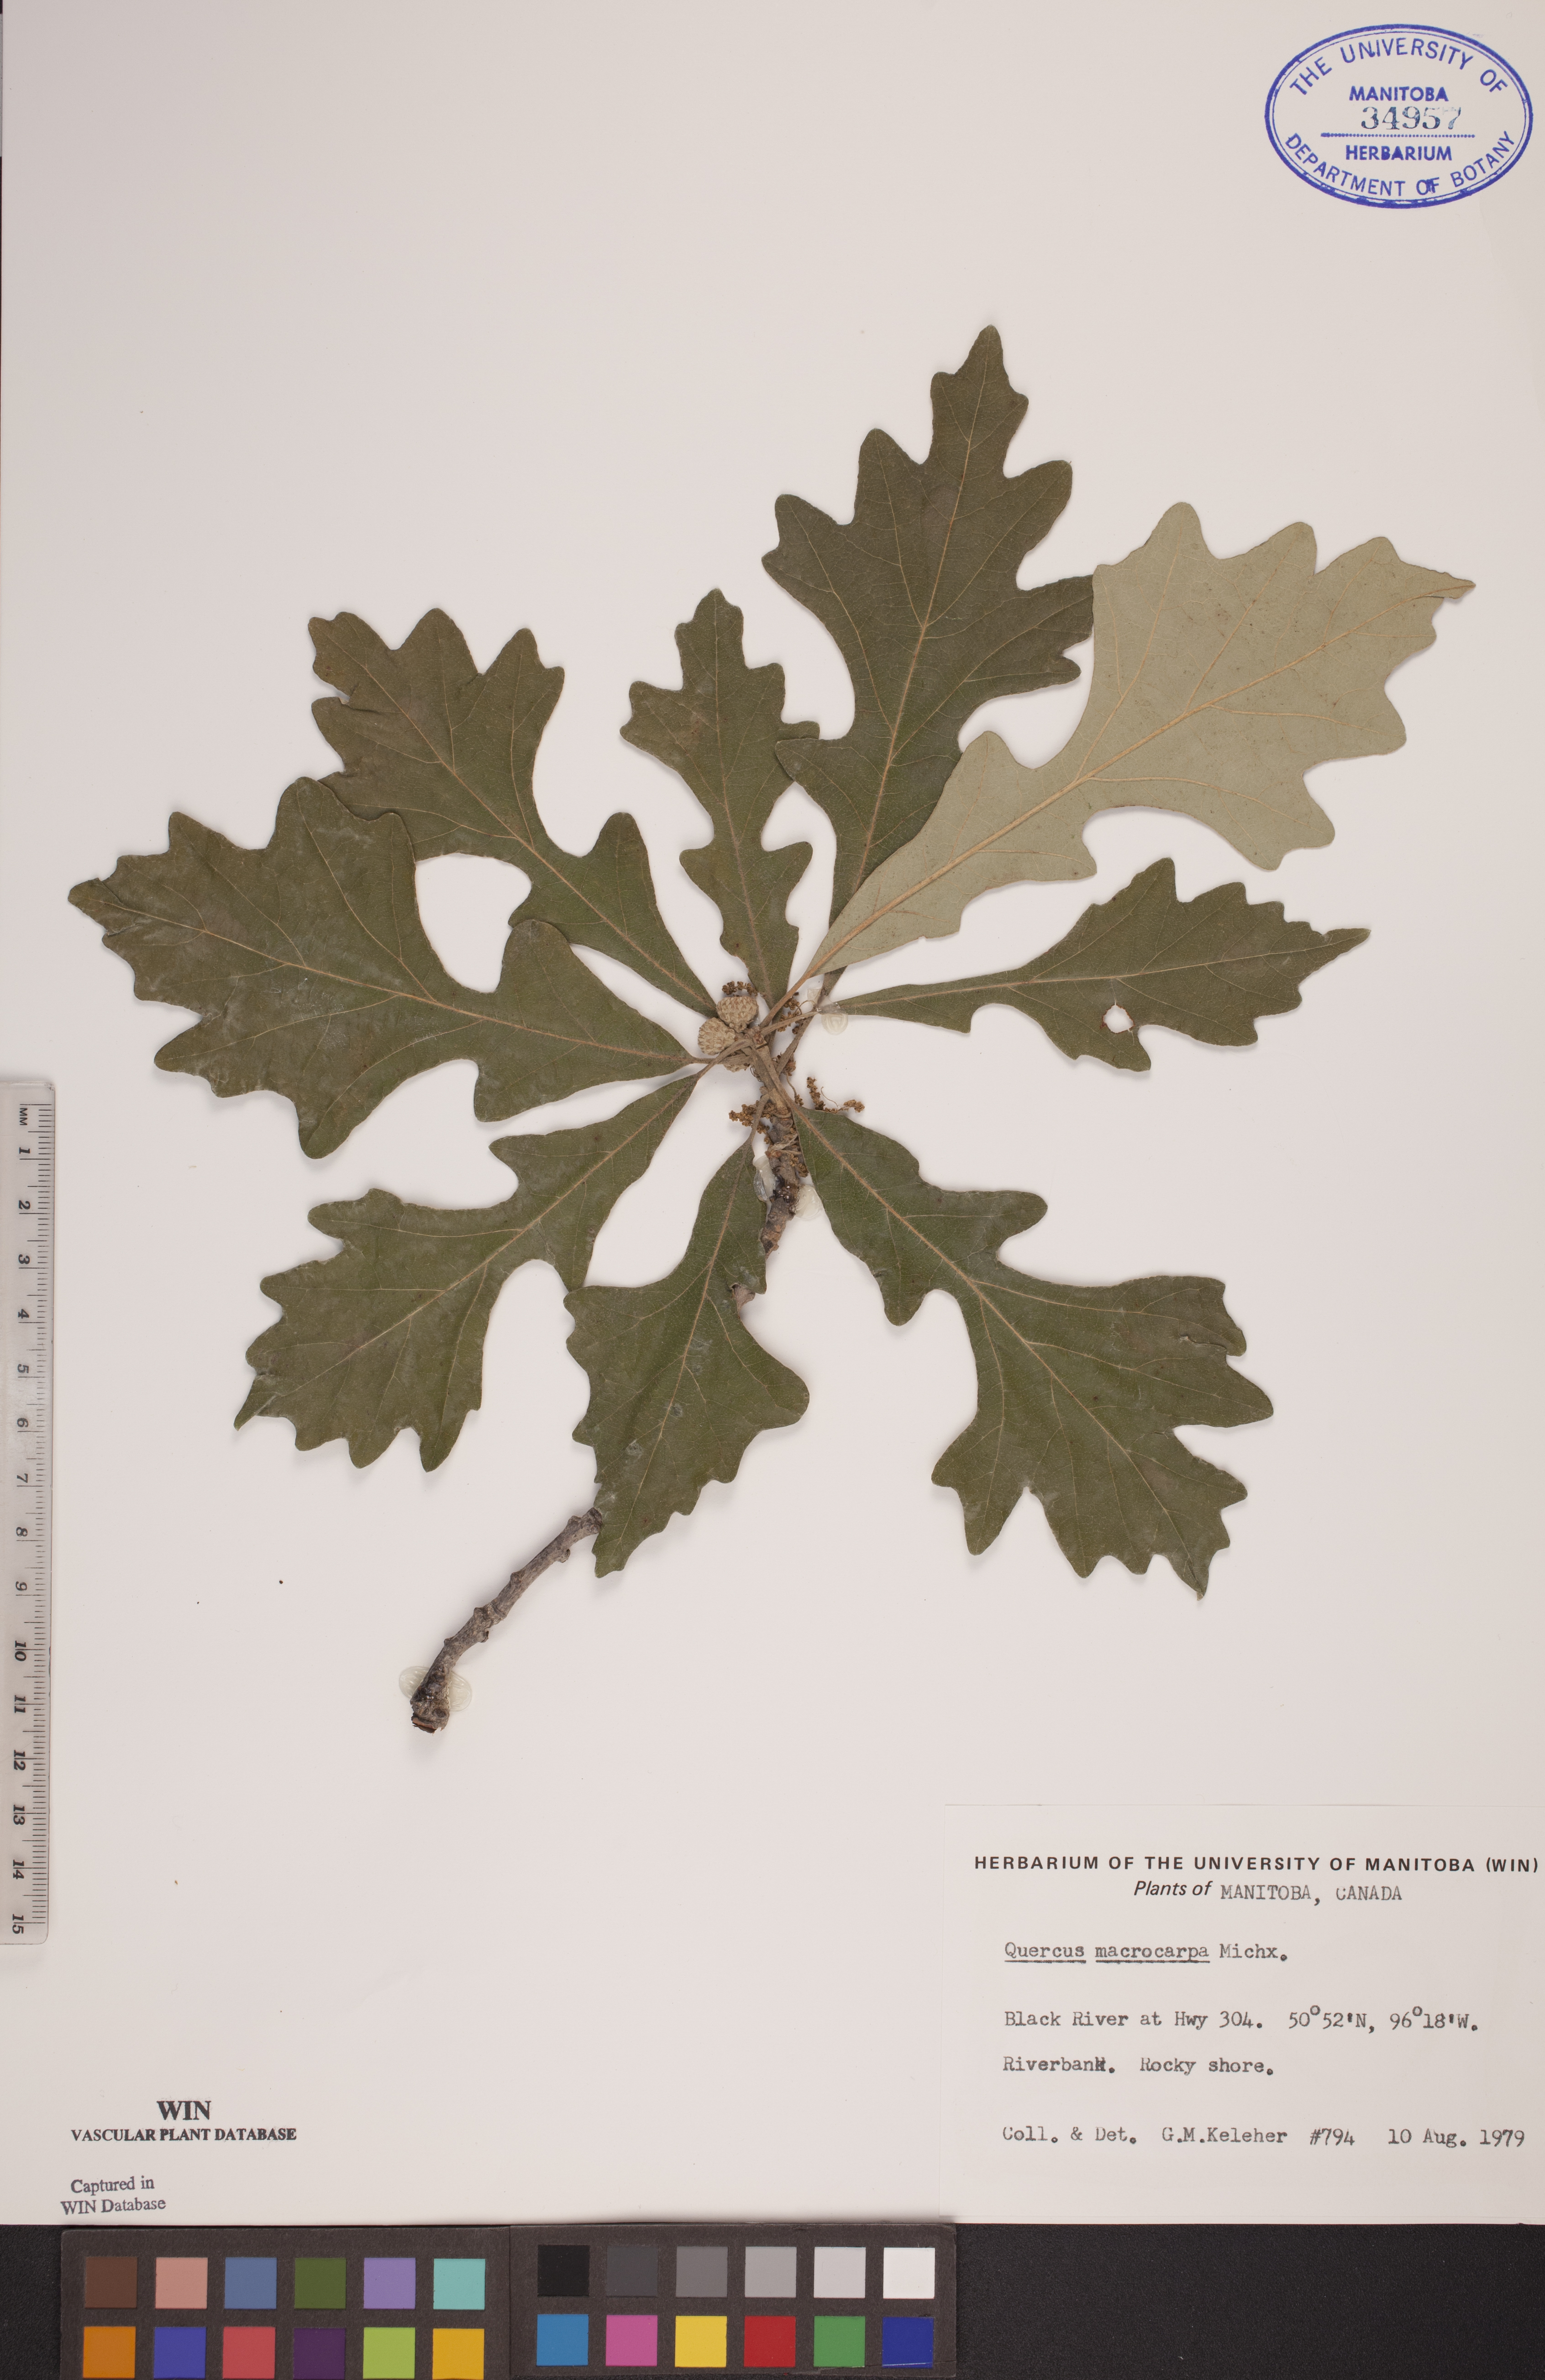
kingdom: Plantae
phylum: Tracheophyta
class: Magnoliopsida
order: Fagales
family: Fagaceae
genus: Quercus
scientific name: Quercus macrocarpa
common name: Bur oak
